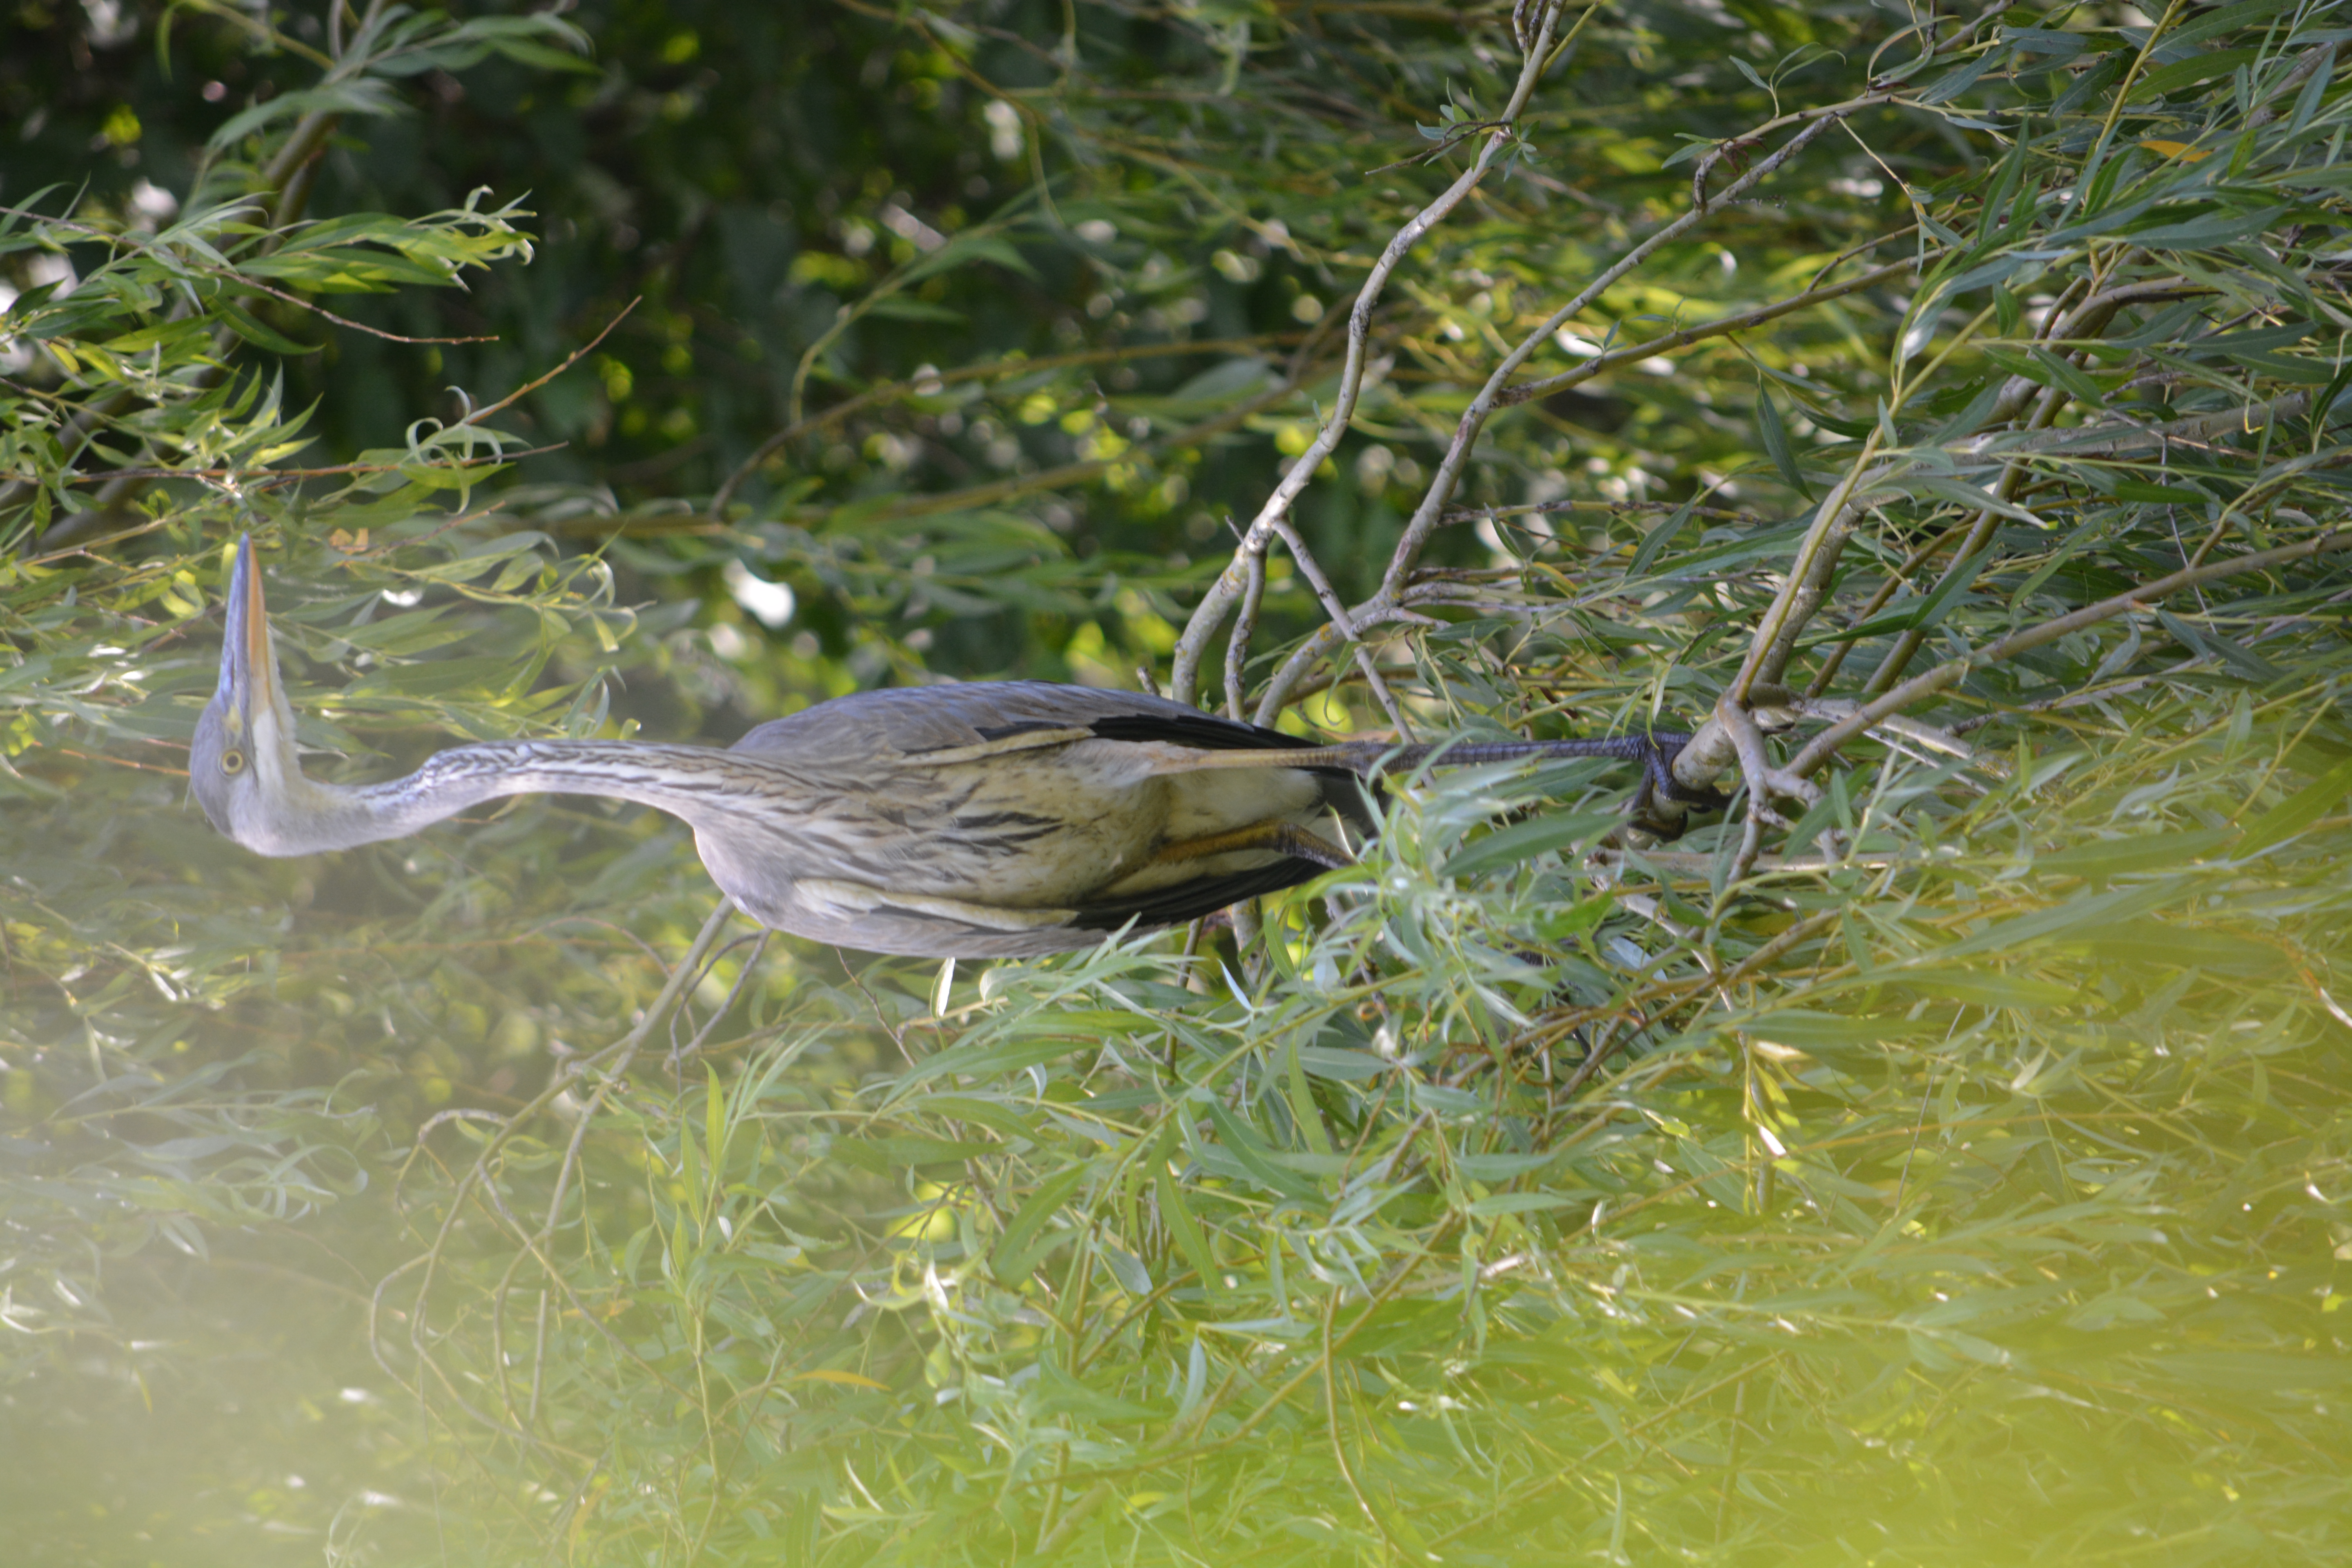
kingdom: Animalia
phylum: Chordata
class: Aves
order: Pelecaniformes
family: Ardeidae
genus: Ardea
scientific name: Ardea cinerea
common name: Fiskehejre
